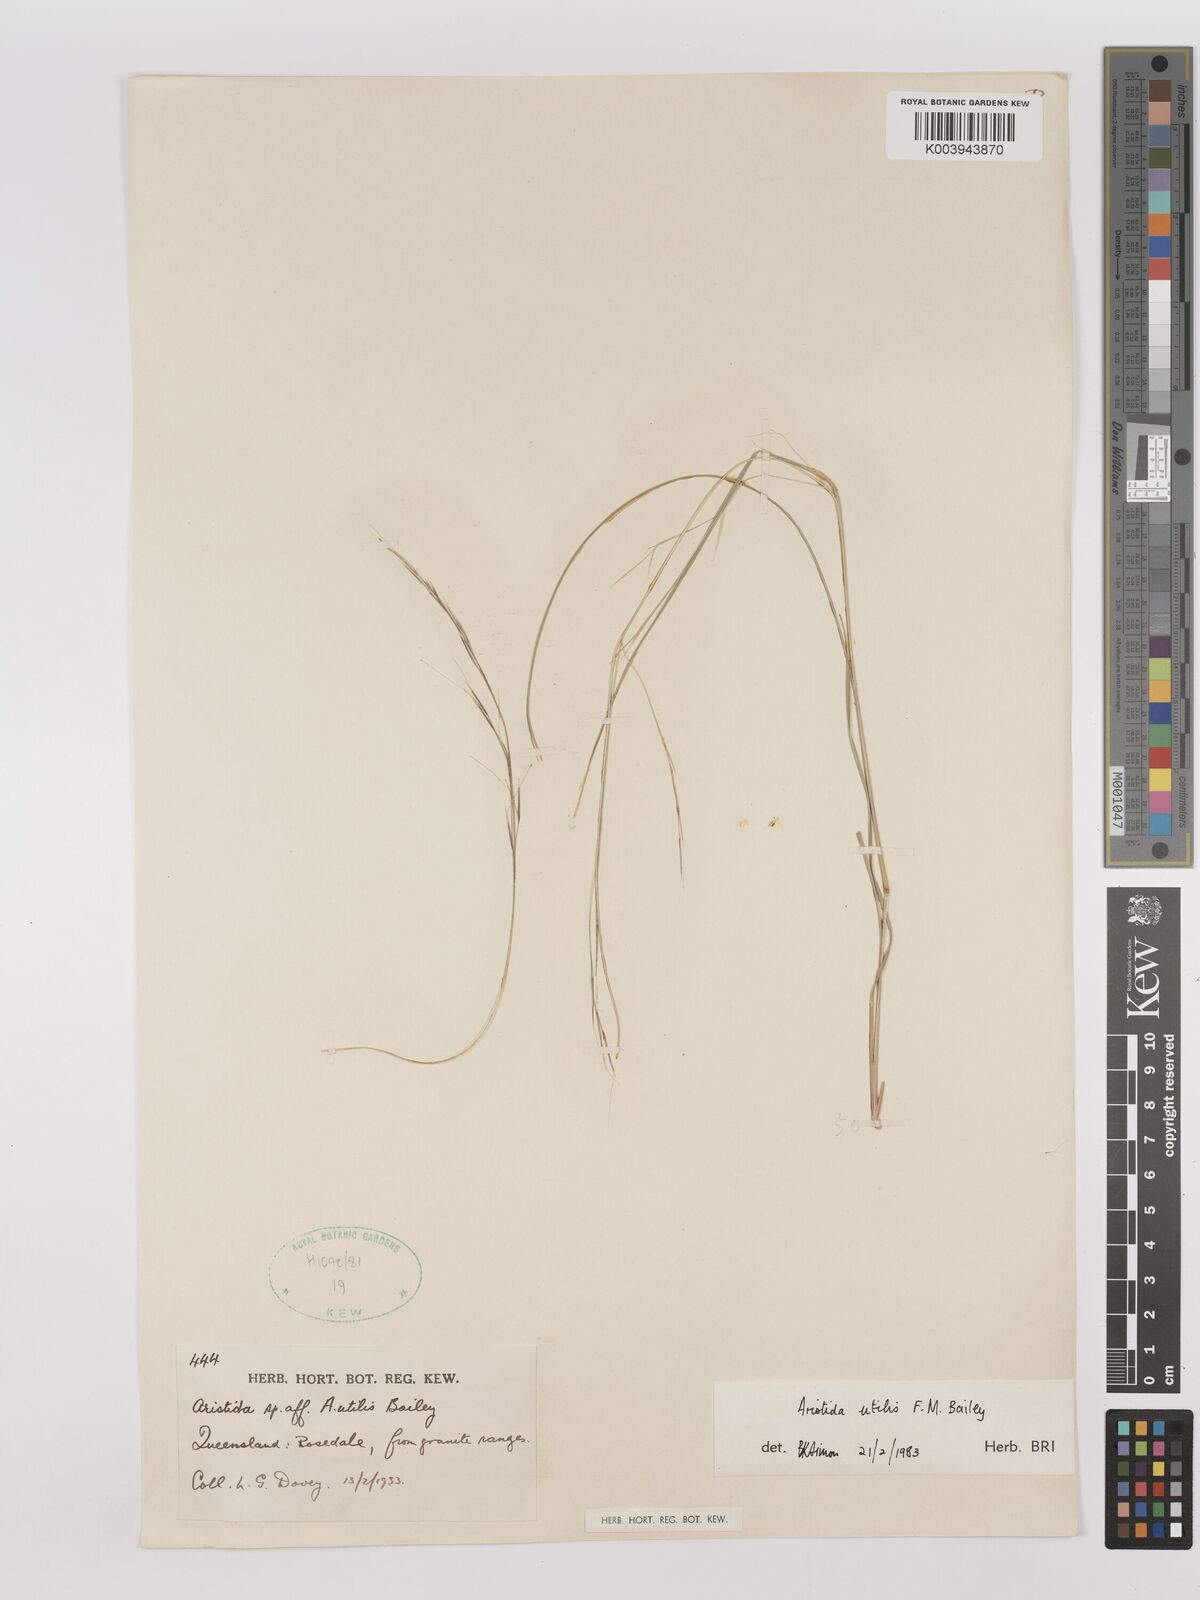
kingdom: Plantae
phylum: Tracheophyta
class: Liliopsida
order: Poales
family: Poaceae
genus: Aristida
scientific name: Aristida utilis
